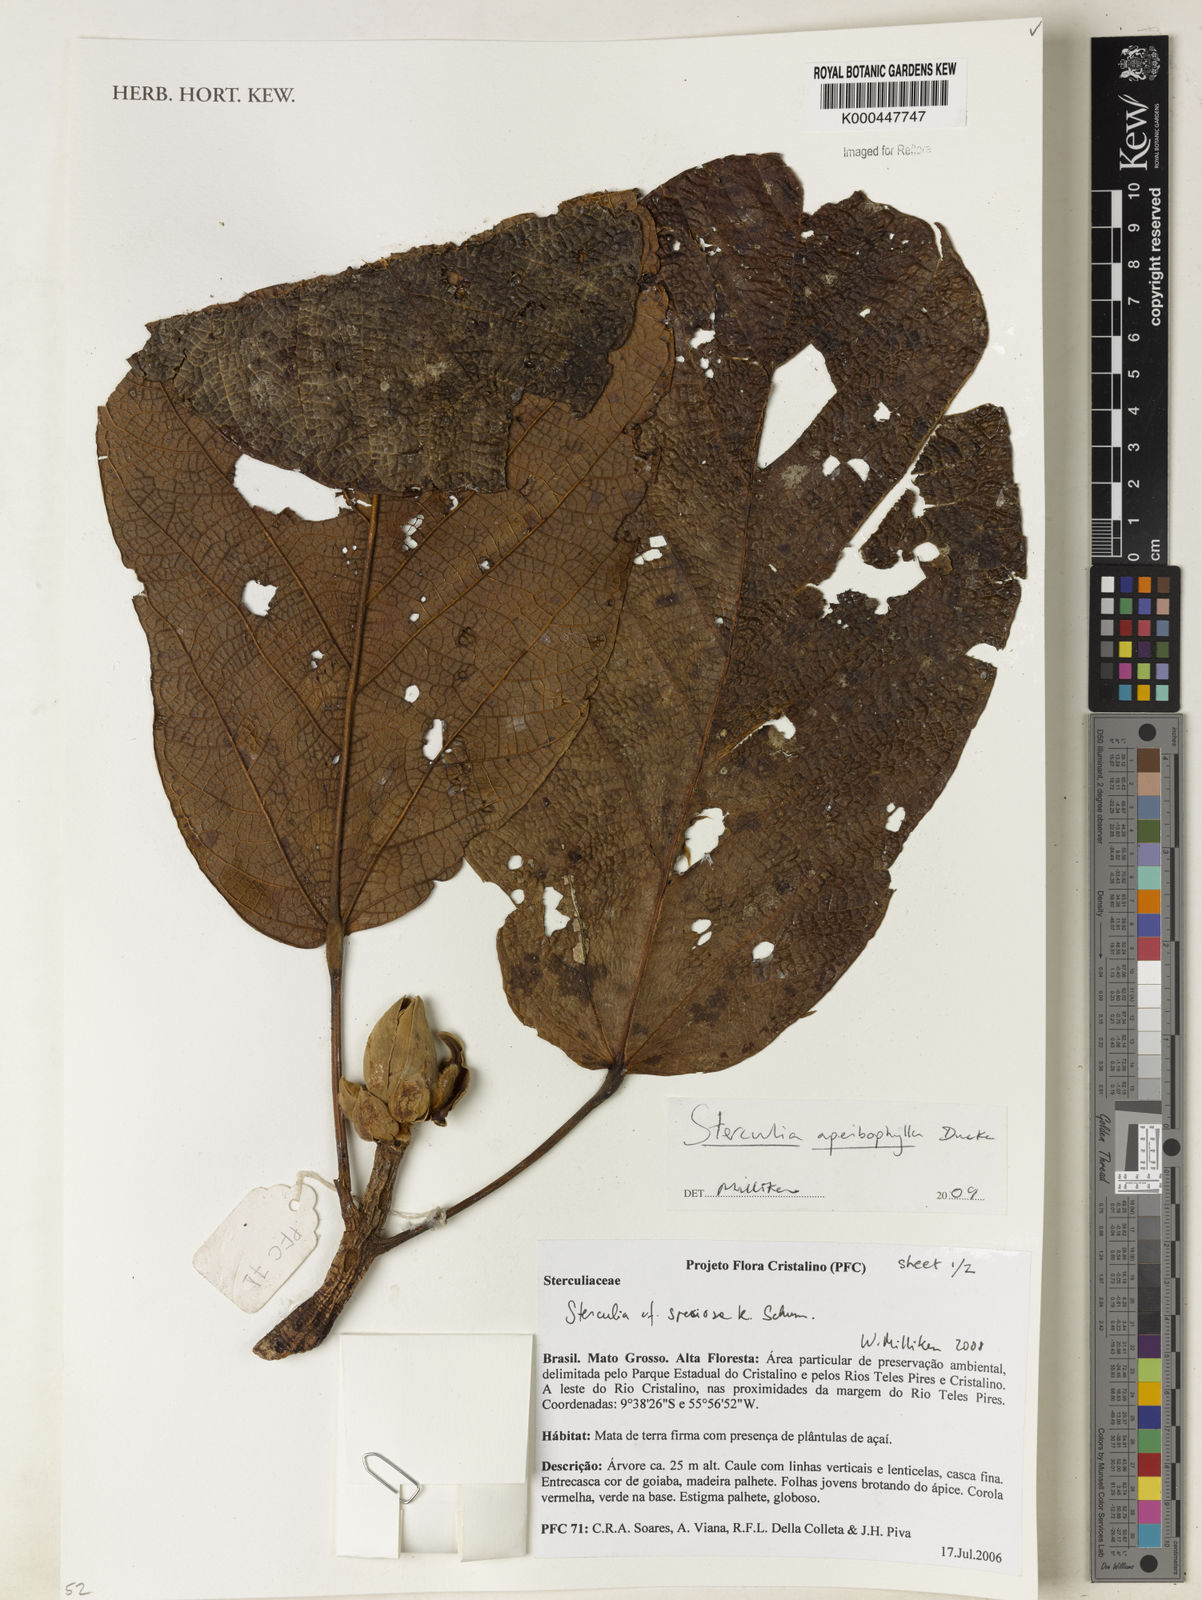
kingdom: Plantae
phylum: Tracheophyta
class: Magnoliopsida
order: Malvales
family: Malvaceae
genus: Sterculia
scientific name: Sterculia apeibophylla
